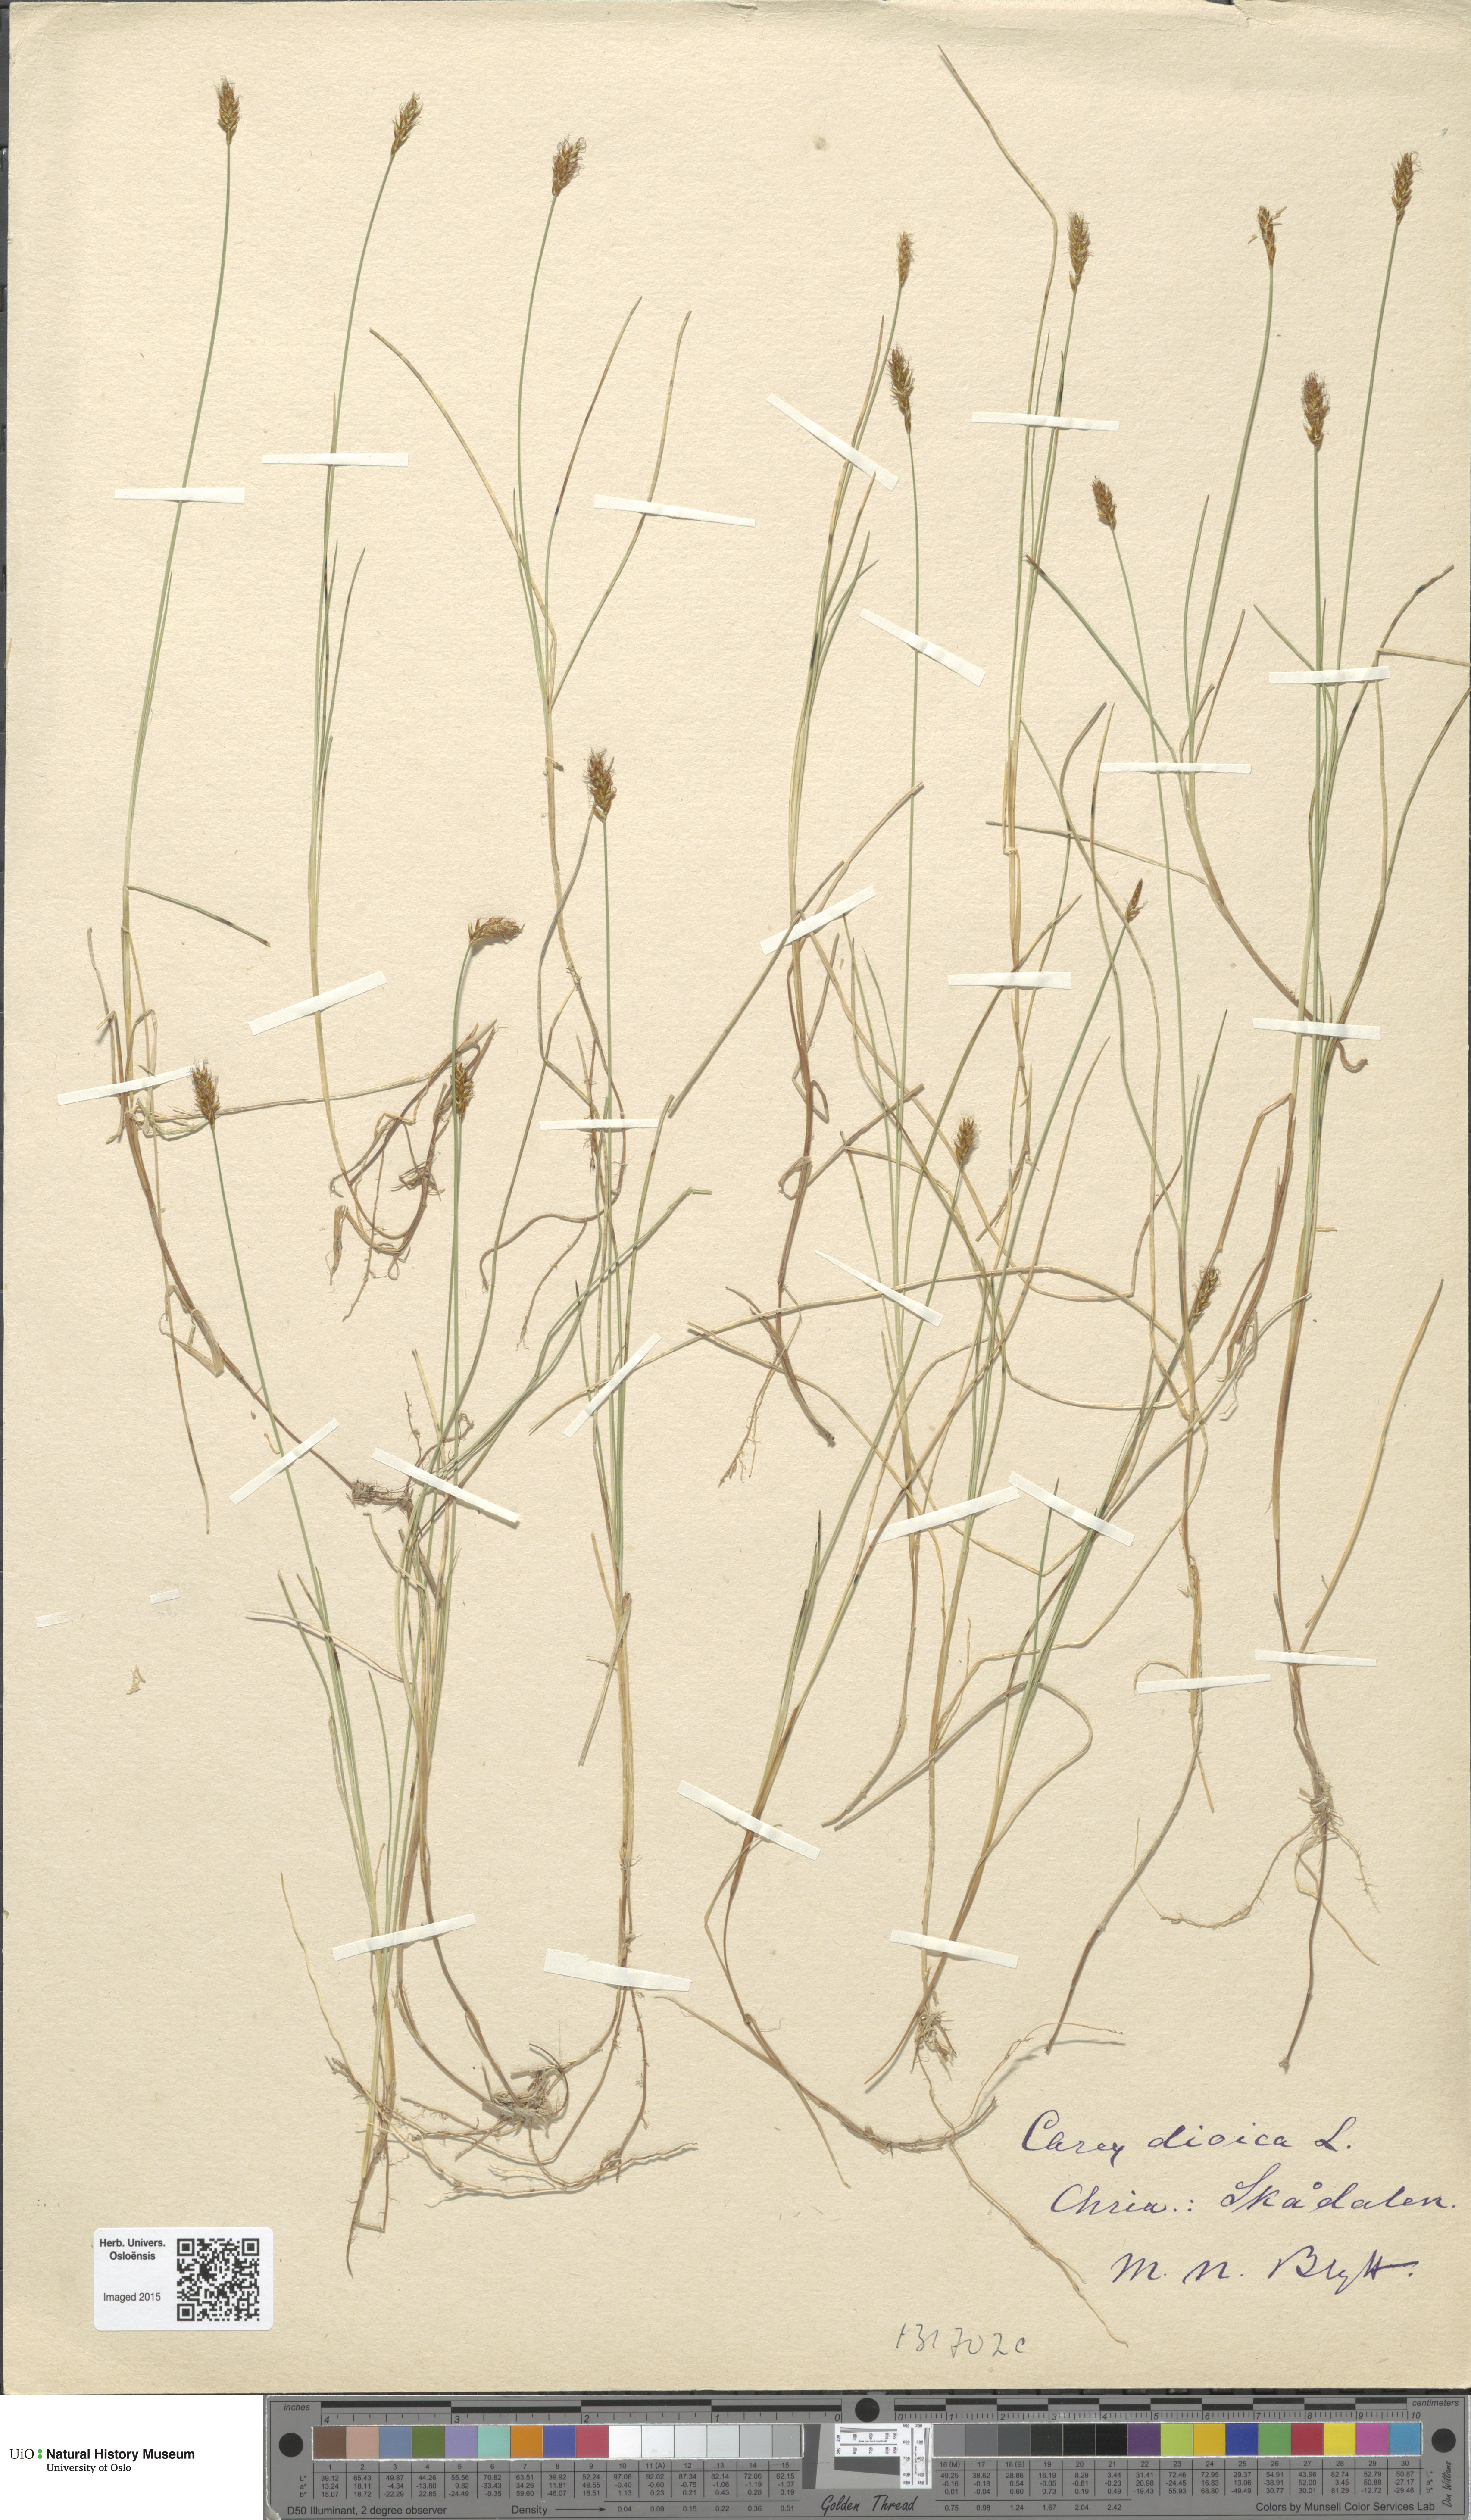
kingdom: Plantae
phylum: Tracheophyta
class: Liliopsida
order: Poales
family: Cyperaceae
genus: Carex
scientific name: Carex dioica
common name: Dioecious sedge
